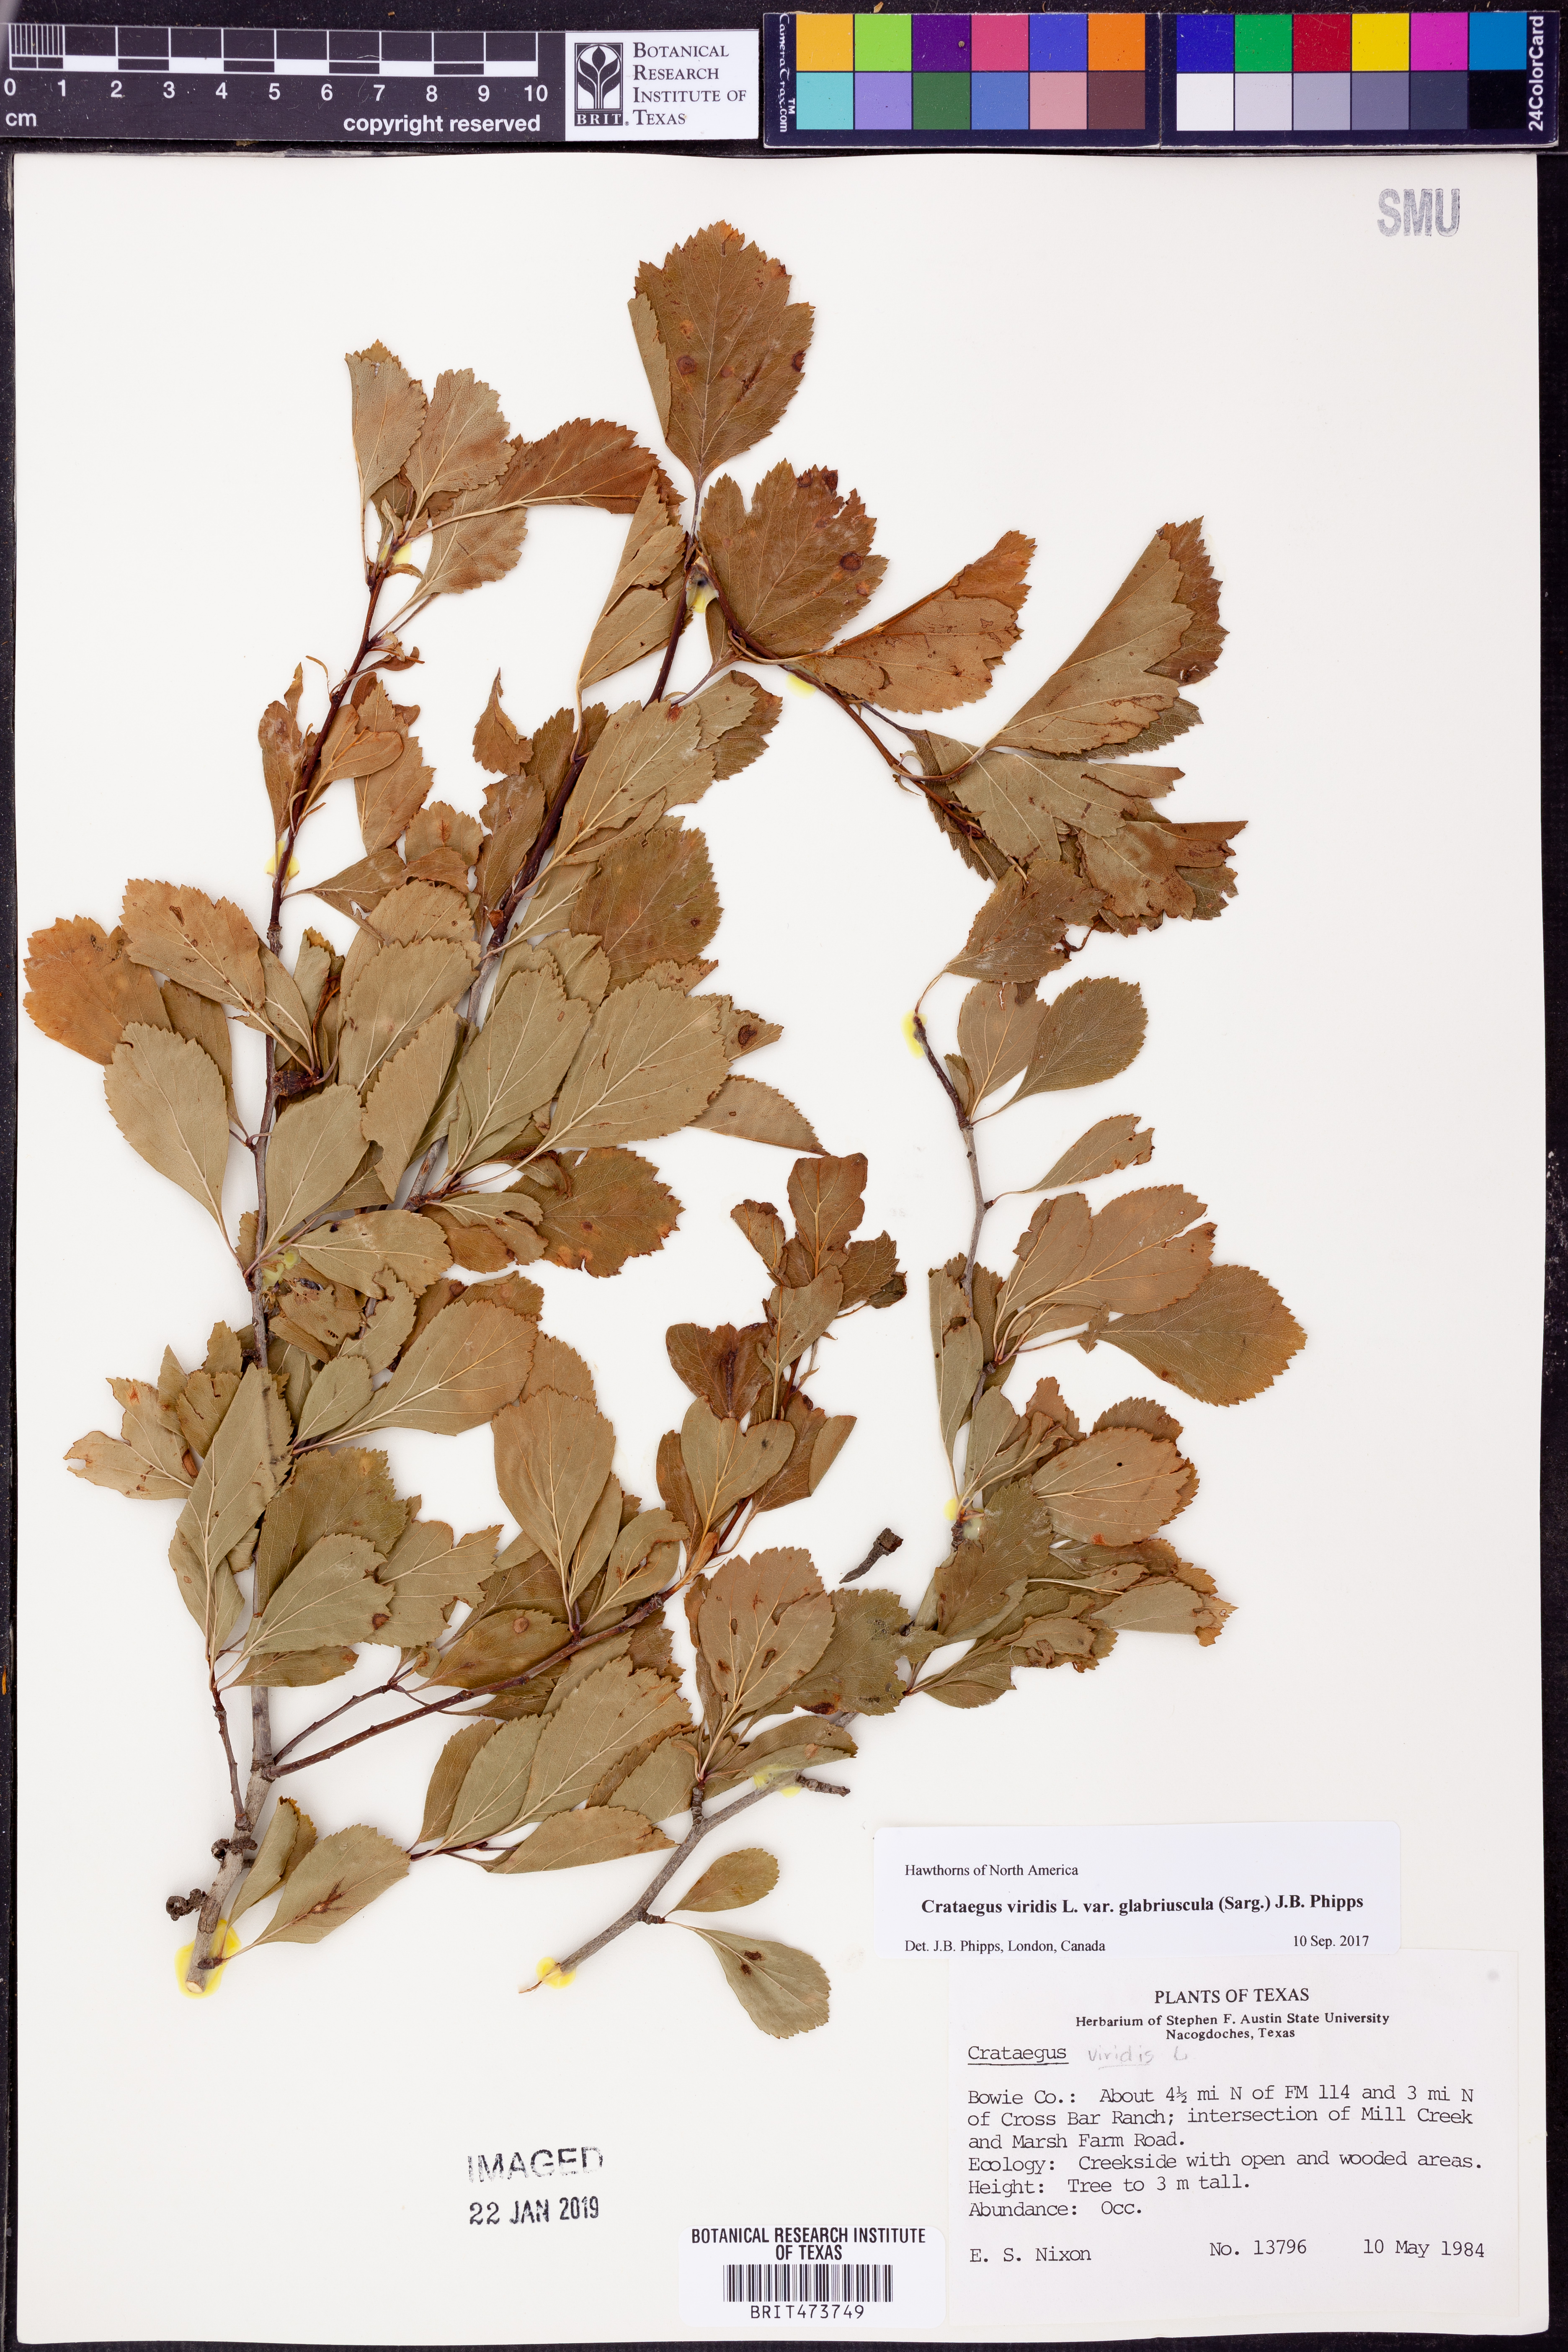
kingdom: Plantae
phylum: Tracheophyta
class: Magnoliopsida
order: Rosales
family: Rosaceae
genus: Crataegus
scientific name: Crataegus viridis
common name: Southernthorn
